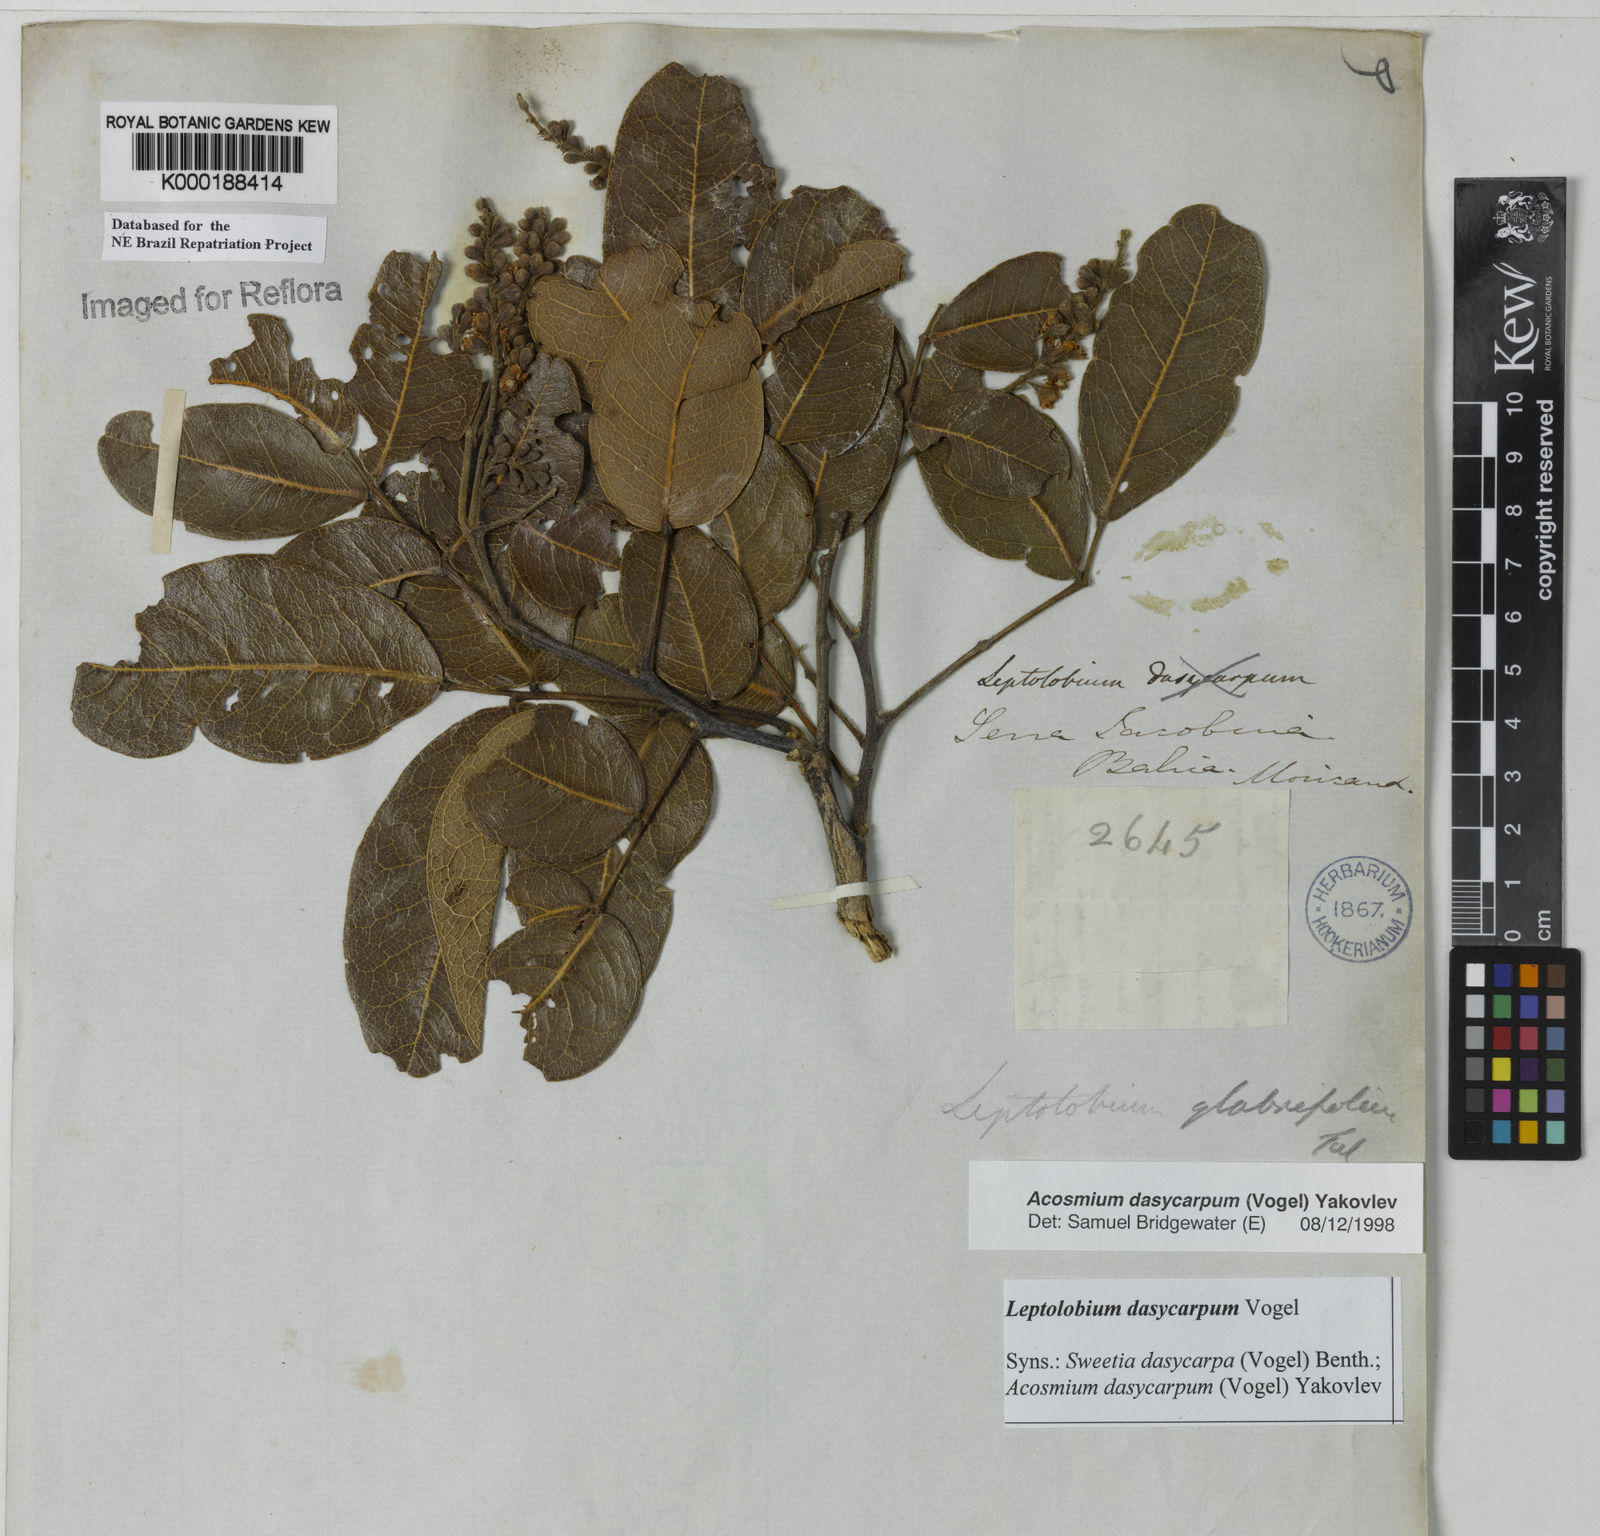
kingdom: Plantae
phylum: Tracheophyta
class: Magnoliopsida
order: Fabales
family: Fabaceae
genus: Leptolobium
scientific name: Leptolobium dasycarpum
